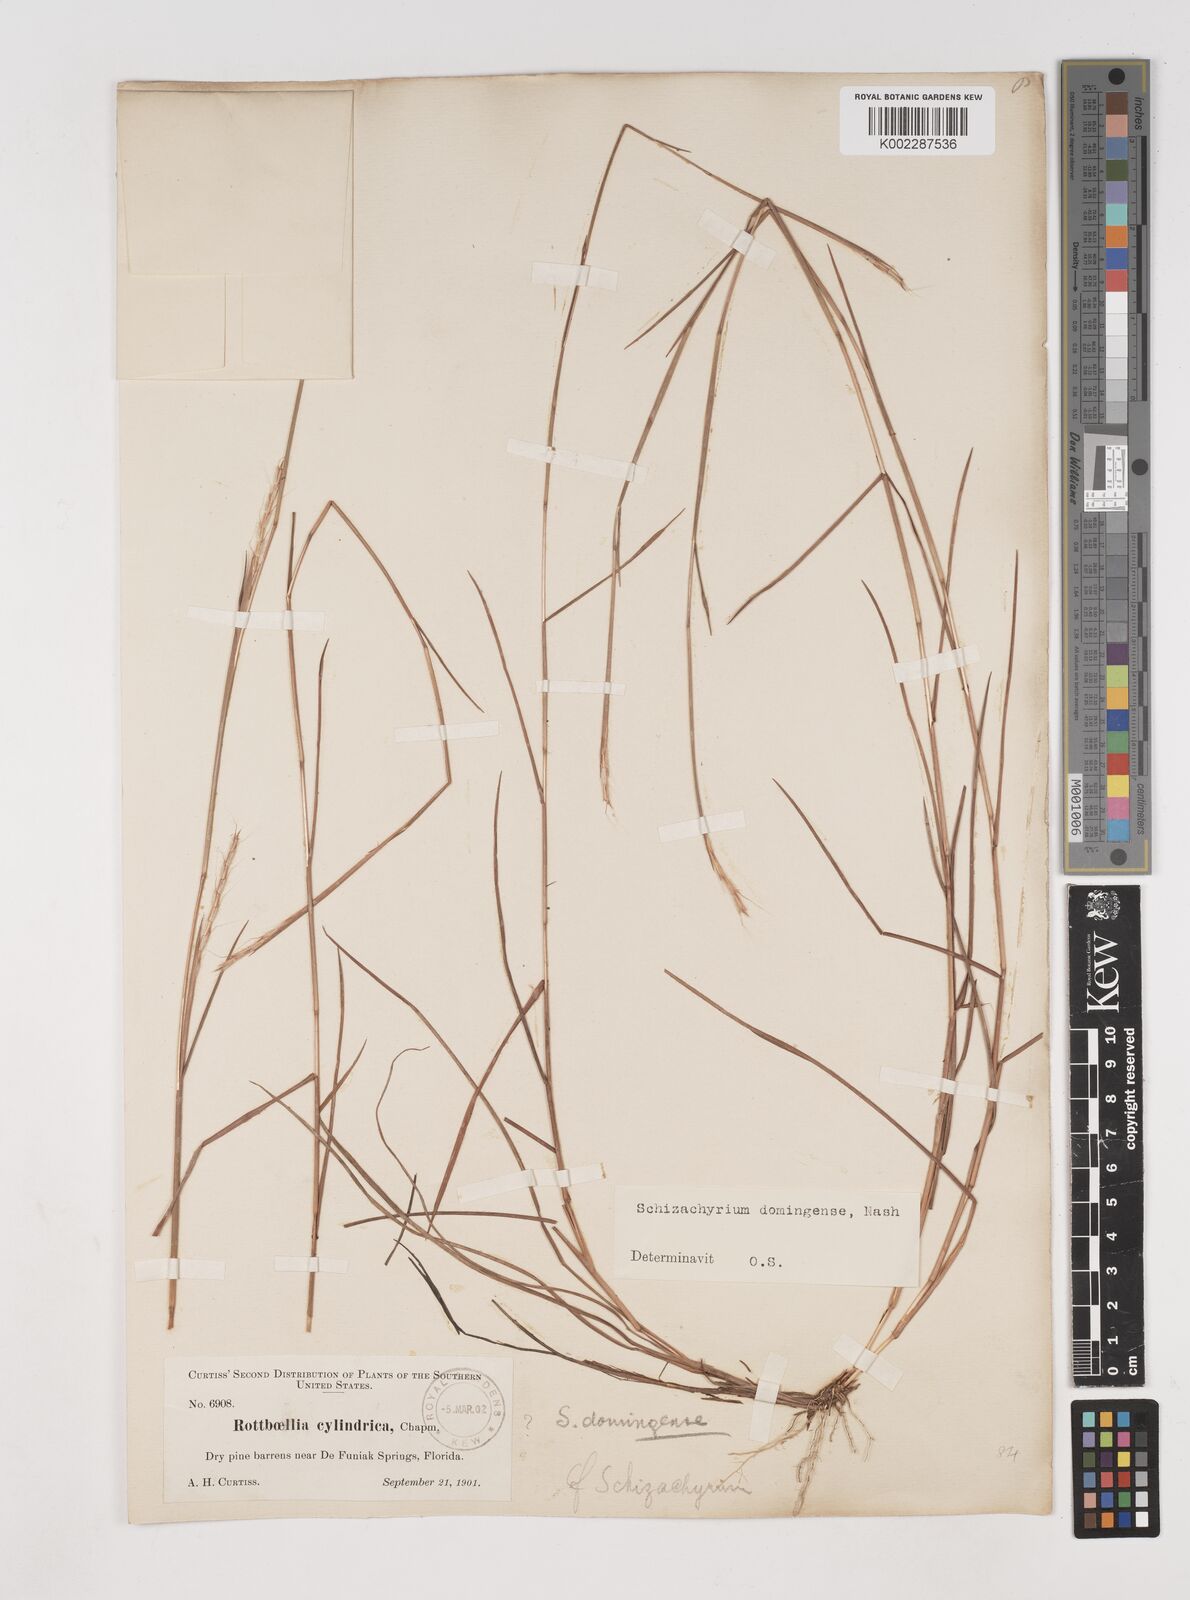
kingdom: Plantae
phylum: Tracheophyta
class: Liliopsida
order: Poales
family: Poaceae
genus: Schizachyrium
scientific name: Schizachyrium sanguineum
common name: Crimson bluestem
